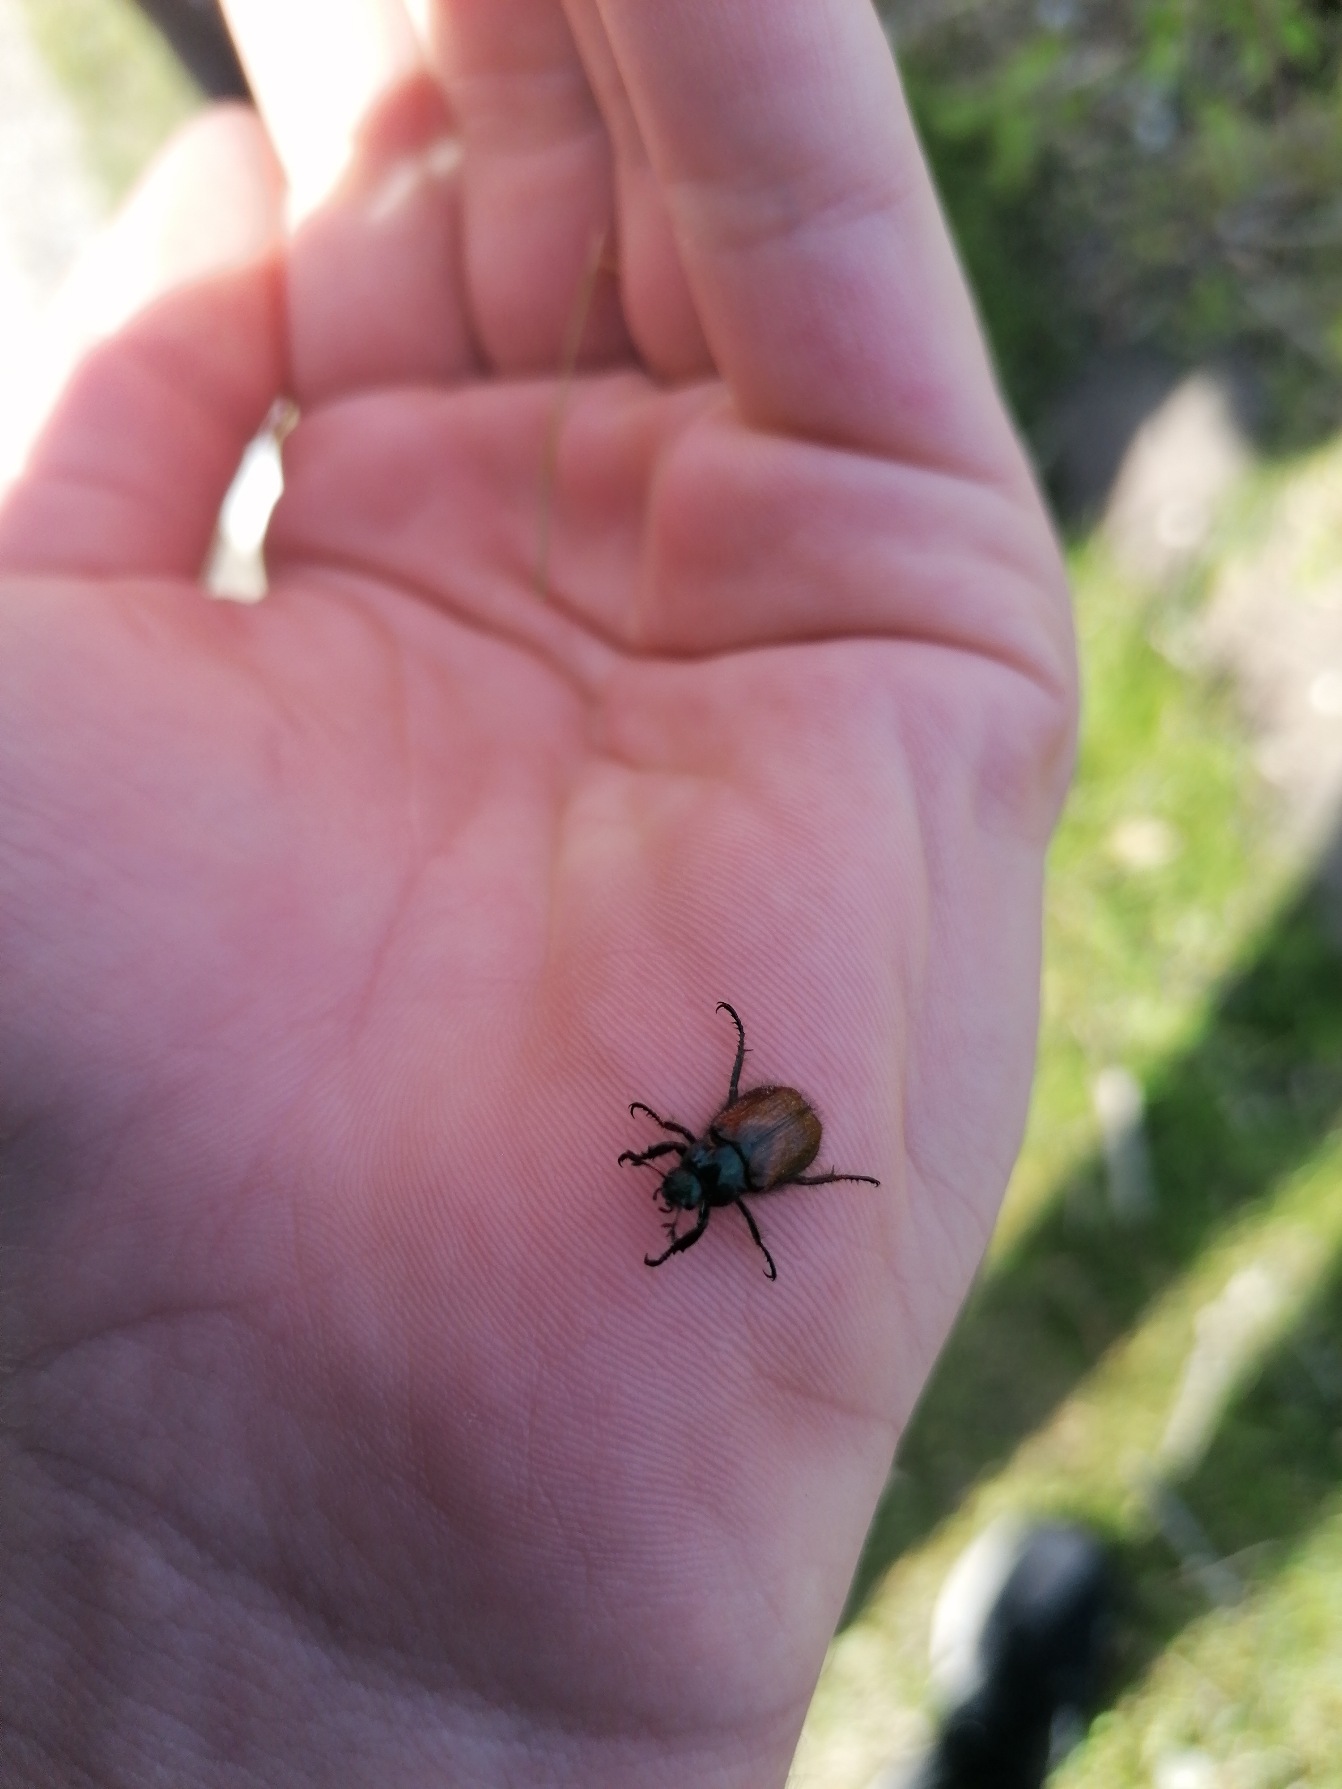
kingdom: Animalia
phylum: Arthropoda
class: Insecta
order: Coleoptera
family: Scarabaeidae
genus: Phyllopertha
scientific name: Phyllopertha horticola
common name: Gåsebille
